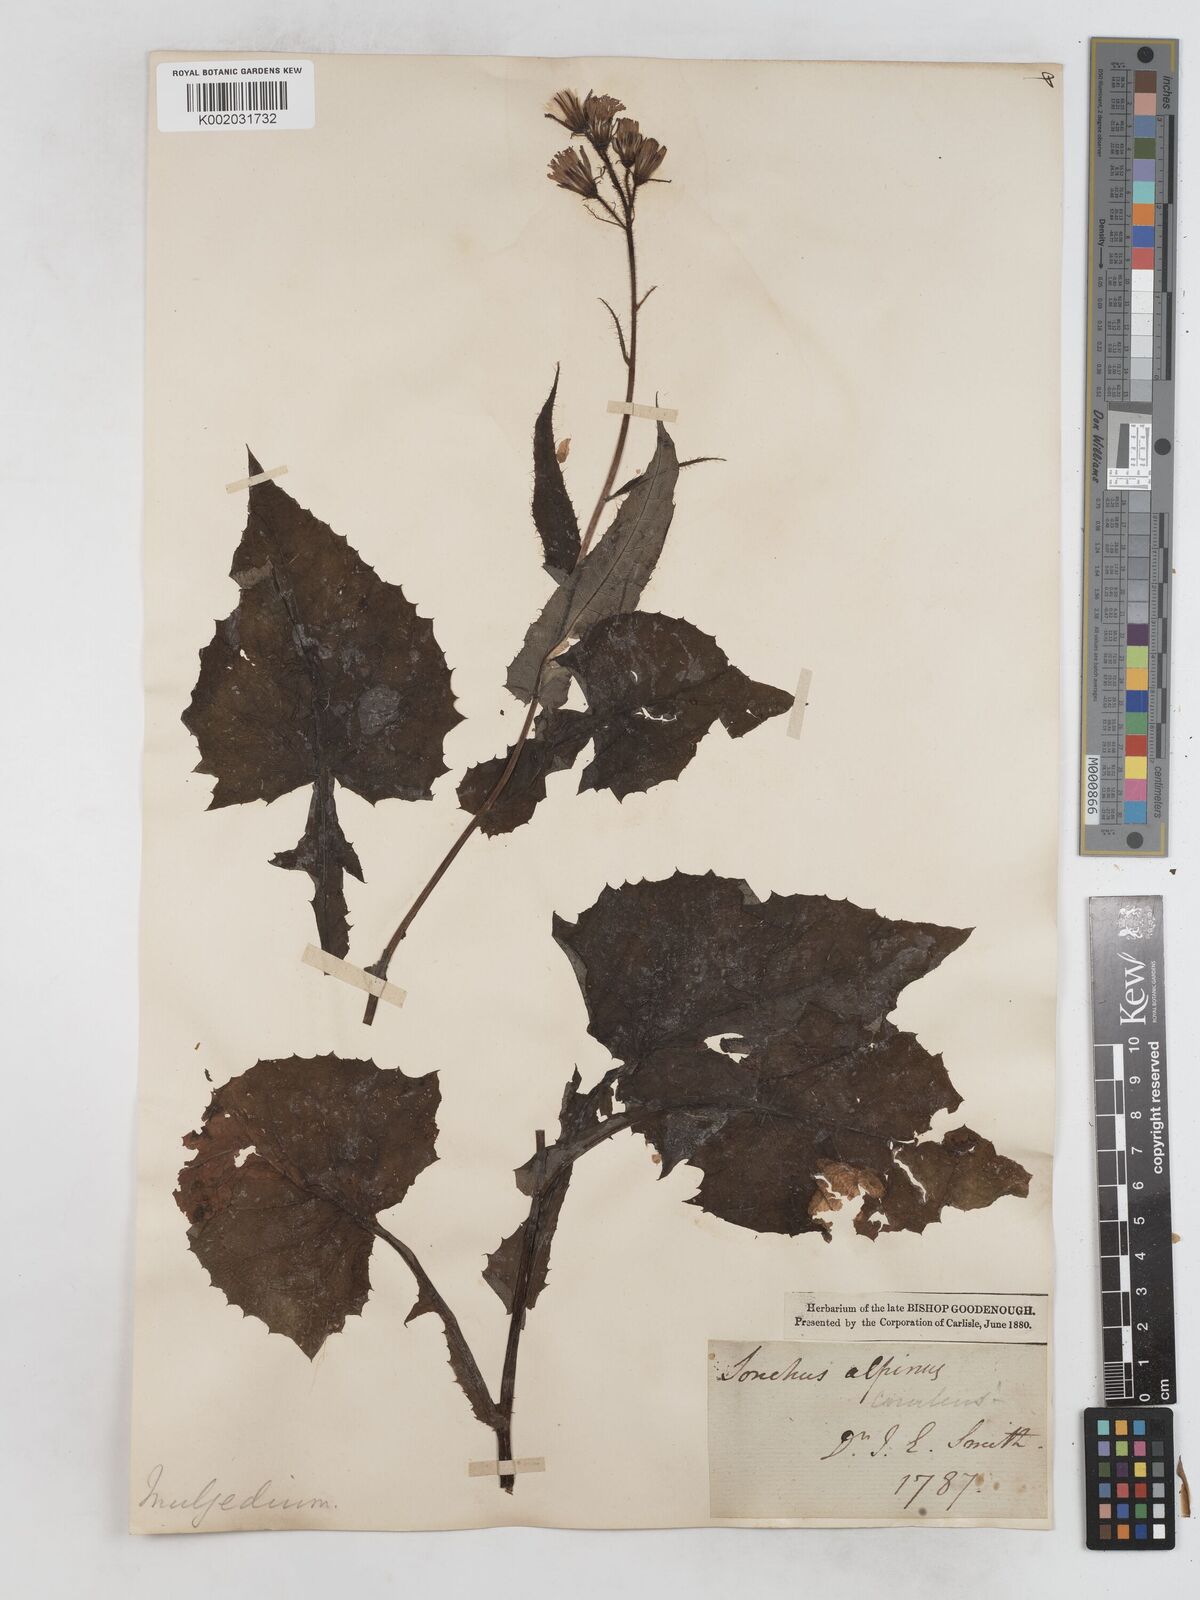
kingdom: Plantae
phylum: Tracheophyta
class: Magnoliopsida
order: Asterales
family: Asteraceae
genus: Cicerbita
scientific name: Cicerbita alpina
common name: Alpine blue-sow-thistle
